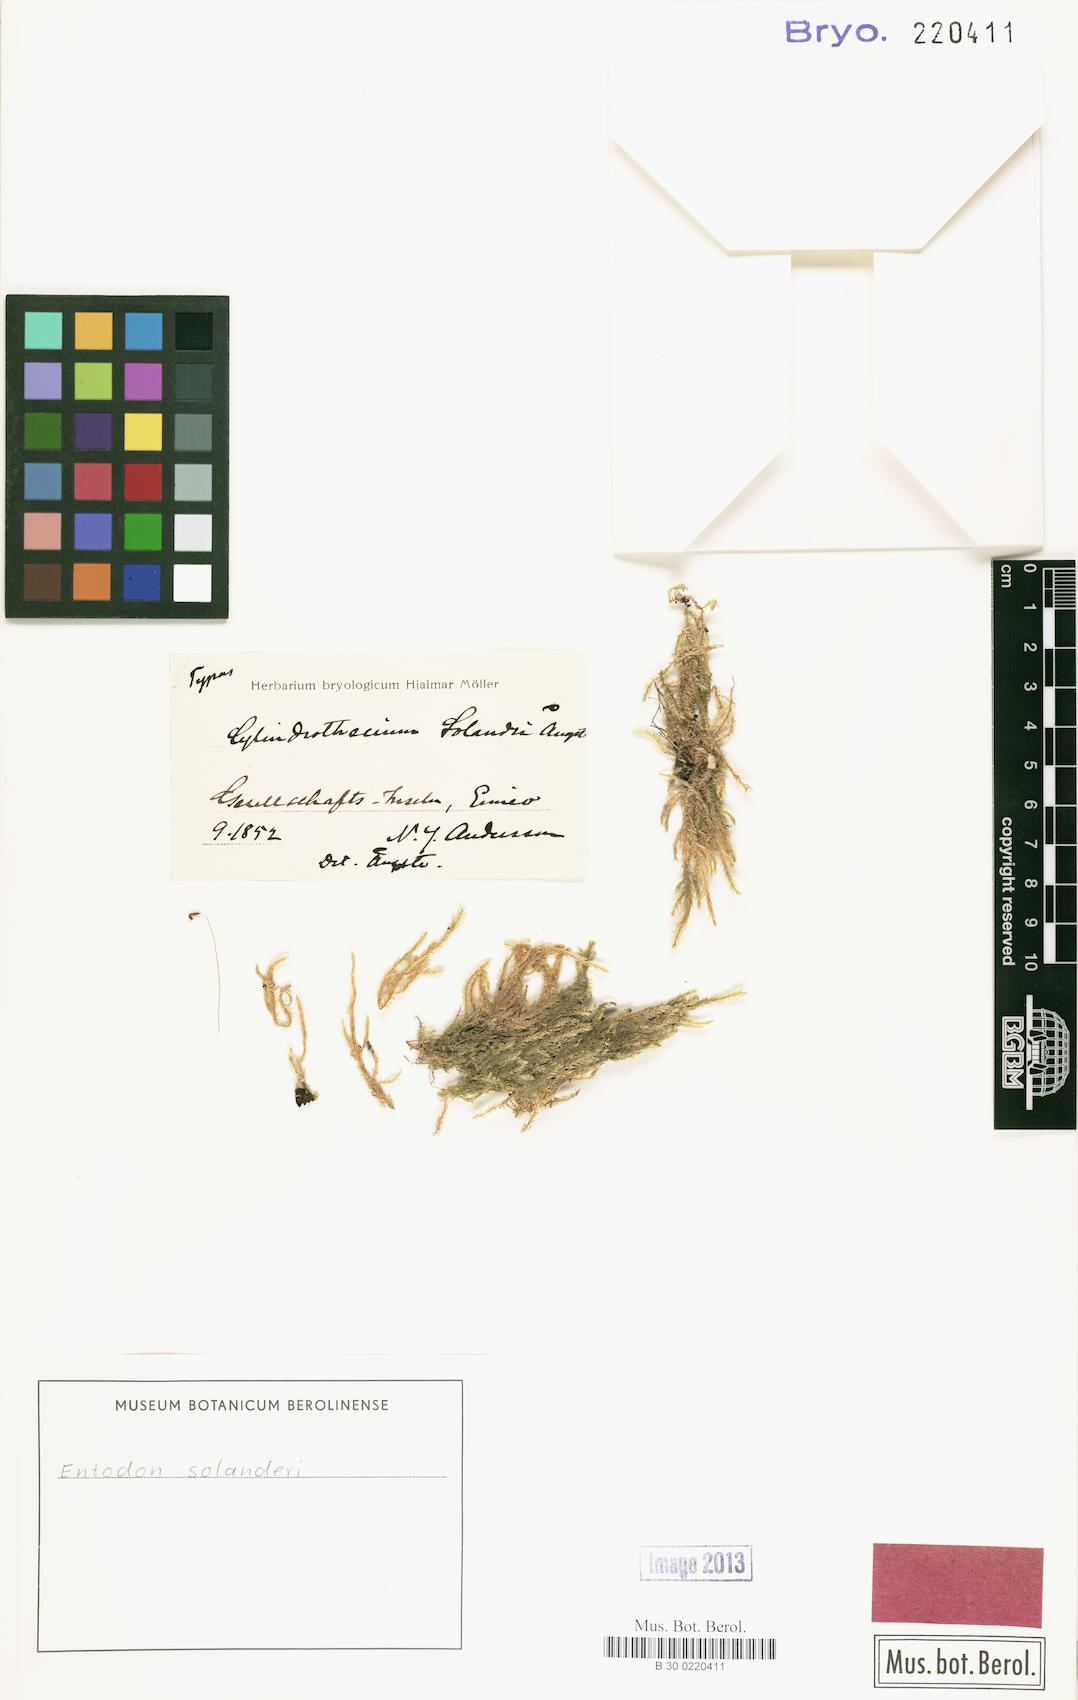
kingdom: Plantae
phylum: Bryophyta
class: Bryopsida
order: Hypnales
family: Entodontaceae
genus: Entodon
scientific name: Entodon plicatus
